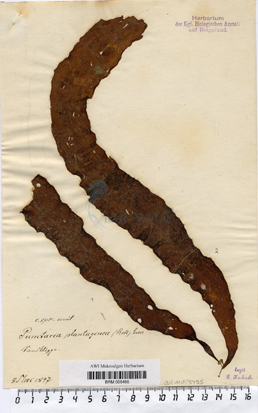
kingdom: Chromista
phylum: Ochrophyta
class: Phaeophyceae
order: Ectocarpales
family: Chordariaceae
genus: Punctaria
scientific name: Punctaria plantaginea
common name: Ribbon weed
